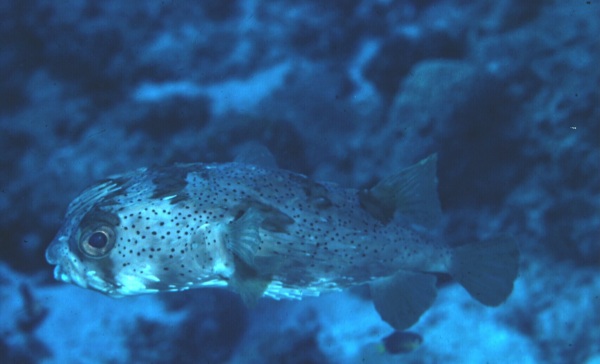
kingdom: Animalia
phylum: Chordata
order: Tetraodontiformes
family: Diodontidae
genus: Diodon
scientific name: Diodon holocanthus
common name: Balloonfish
